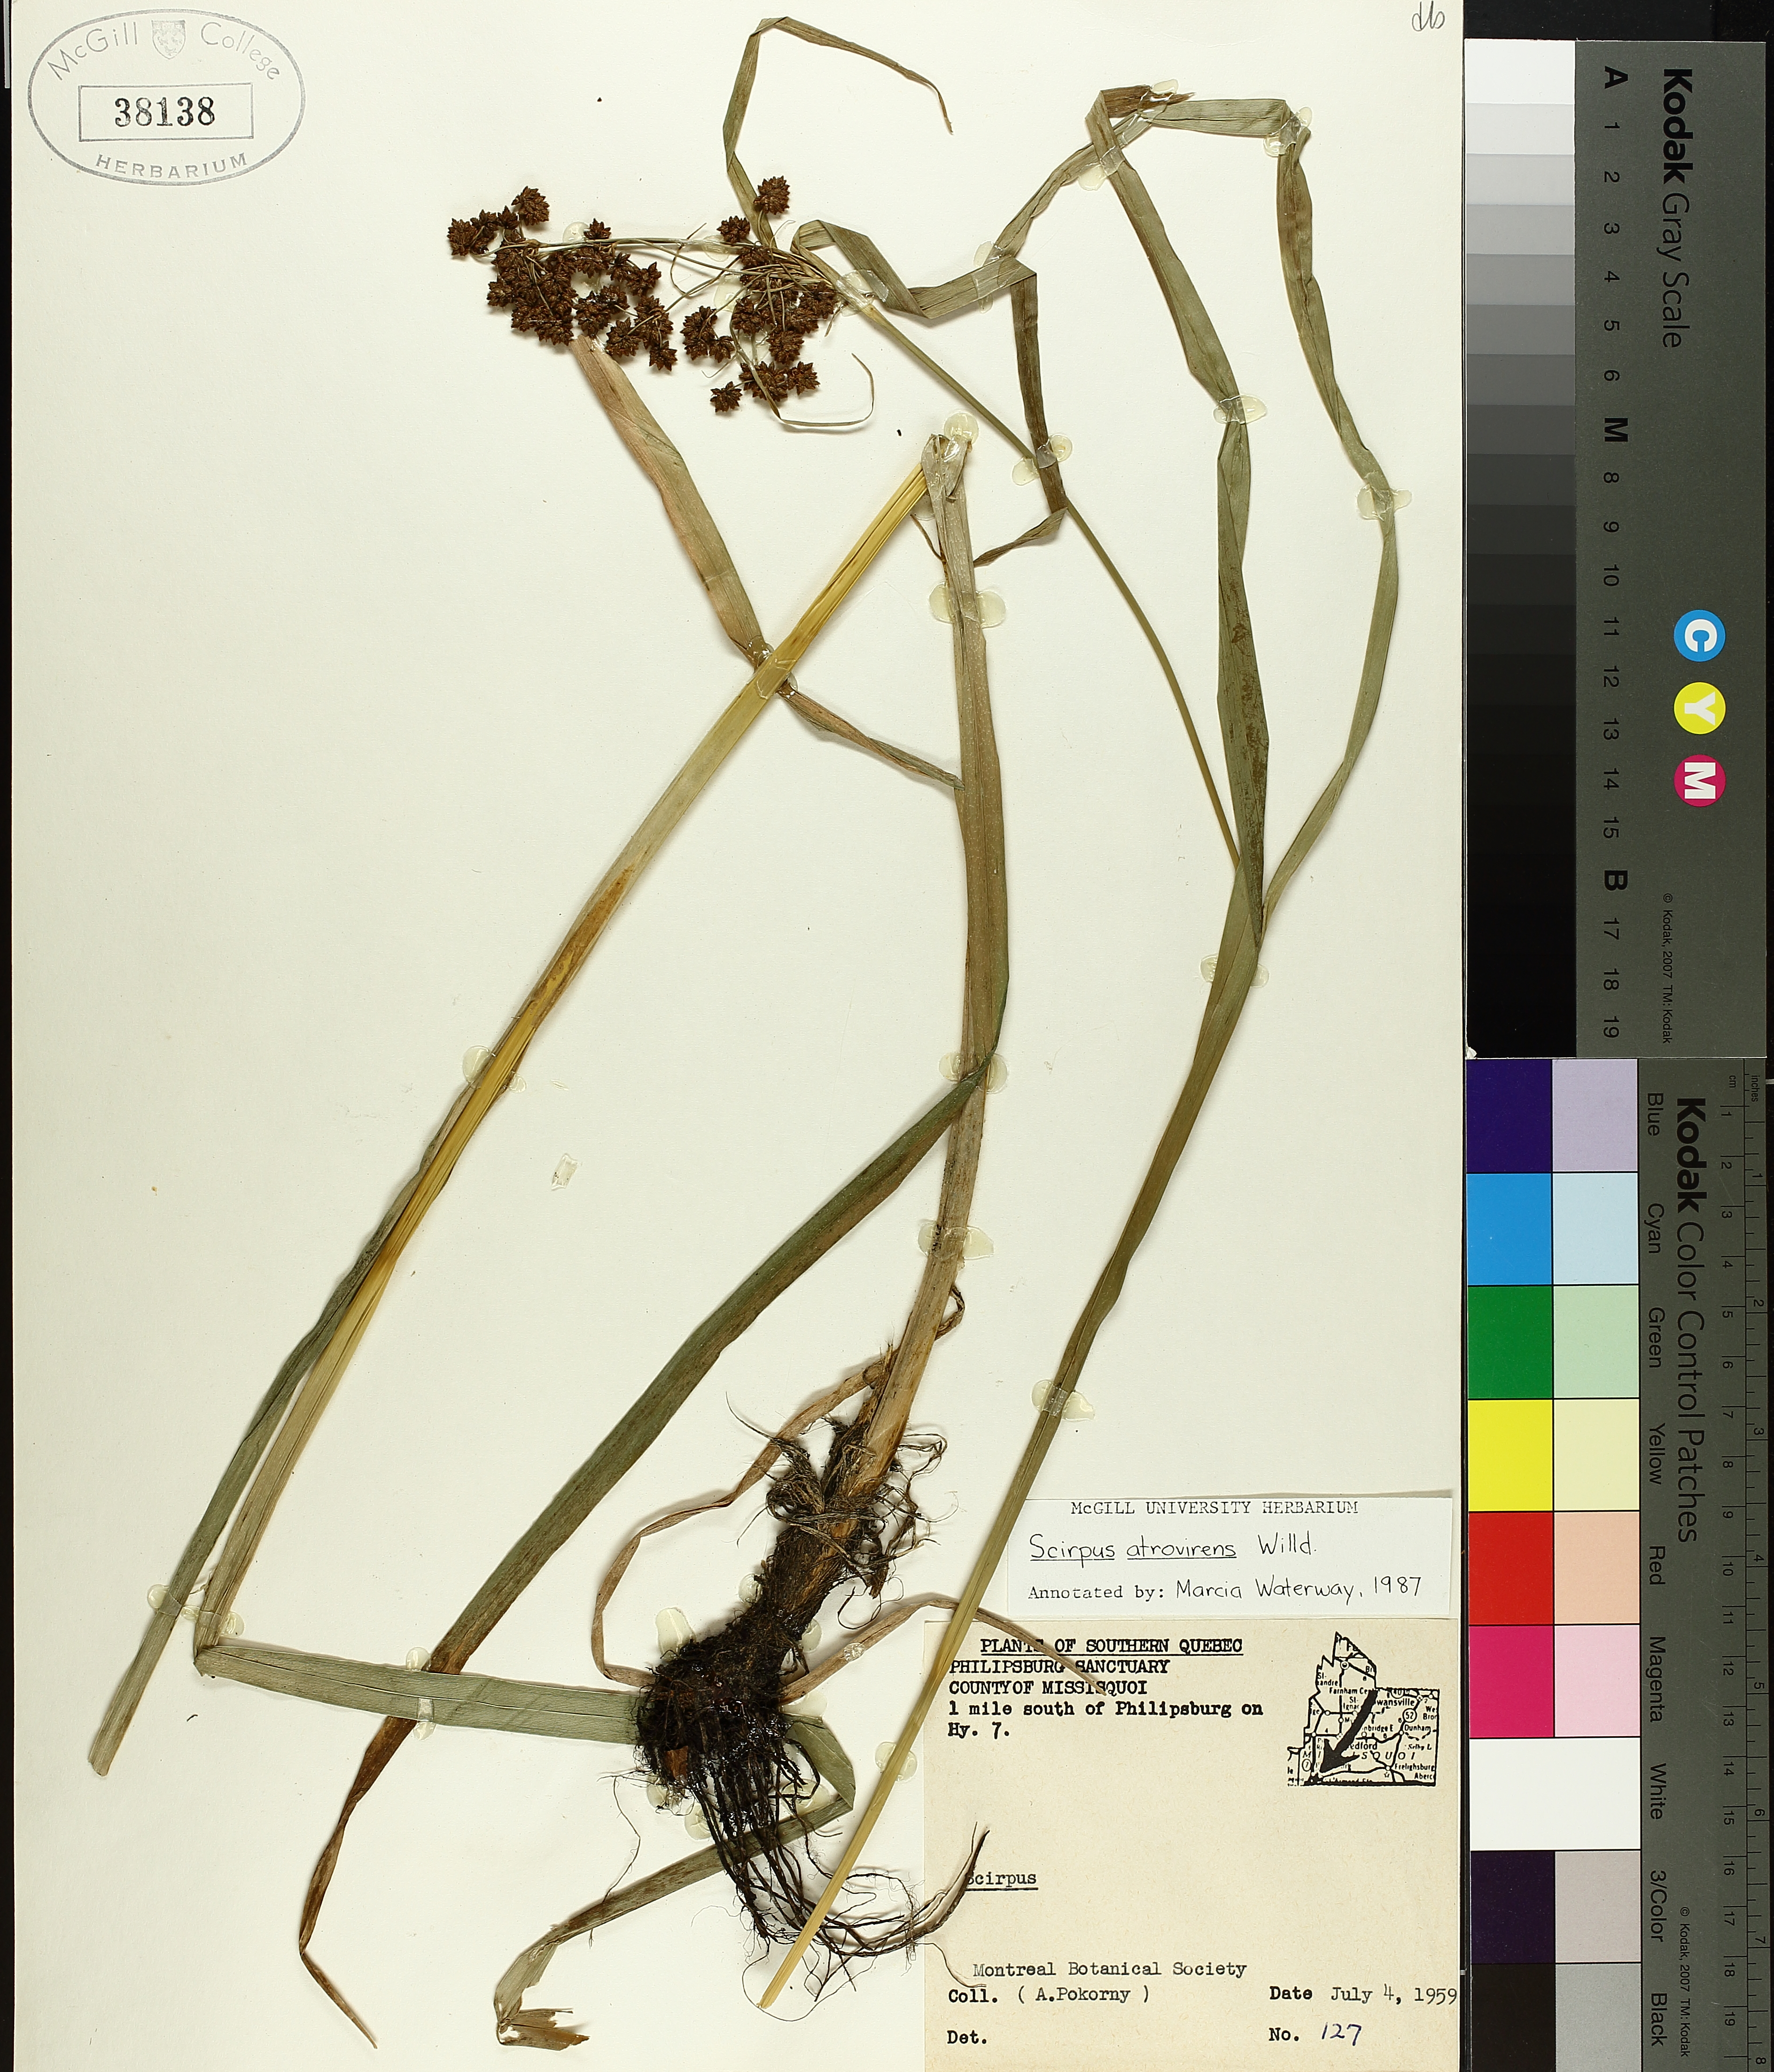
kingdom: Plantae
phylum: Tracheophyta
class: Liliopsida
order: Poales
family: Cyperaceae
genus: Scirpus
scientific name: Scirpus atrovirens
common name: Black bulrush
